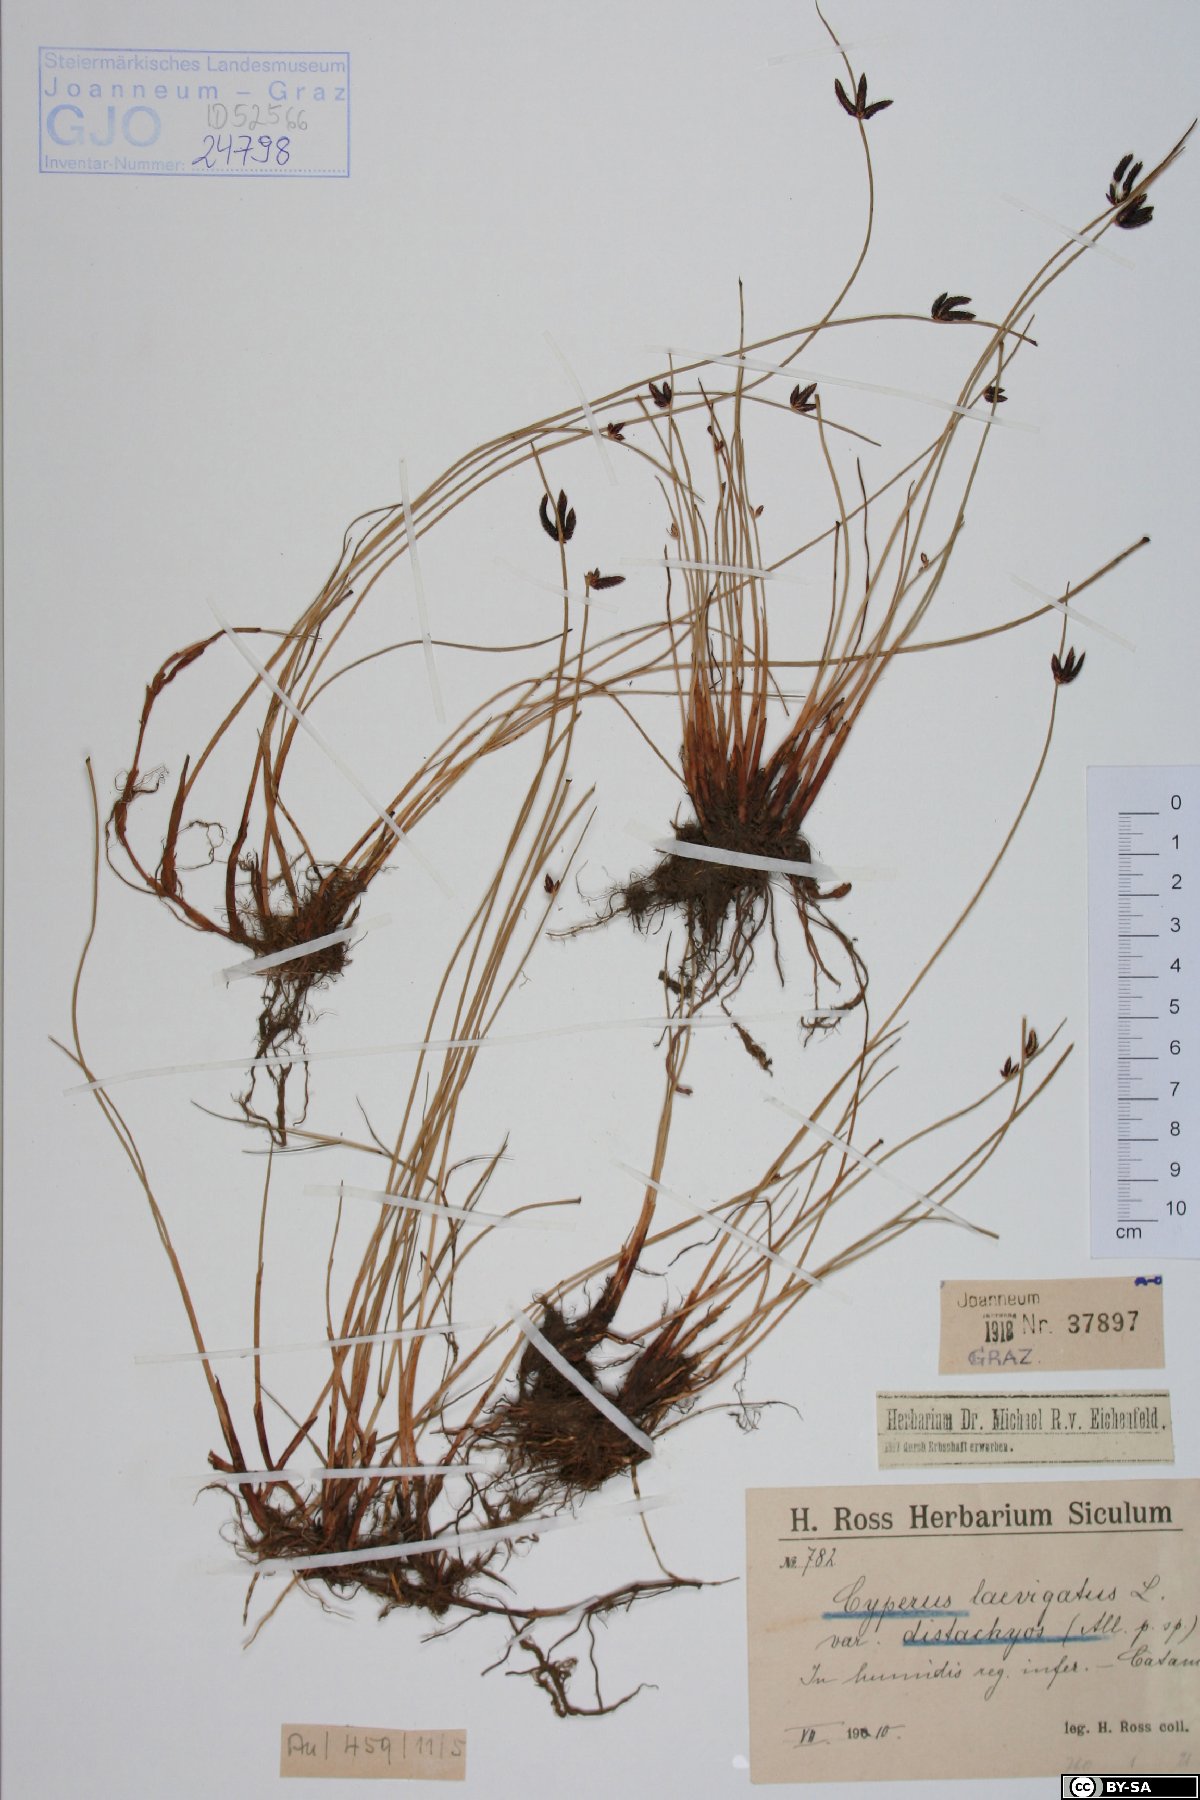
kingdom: Plantae
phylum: Tracheophyta
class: Liliopsida
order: Poales
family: Cyperaceae
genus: Cyperus
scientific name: Cyperus laevigatus
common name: Smooth flat sedge
